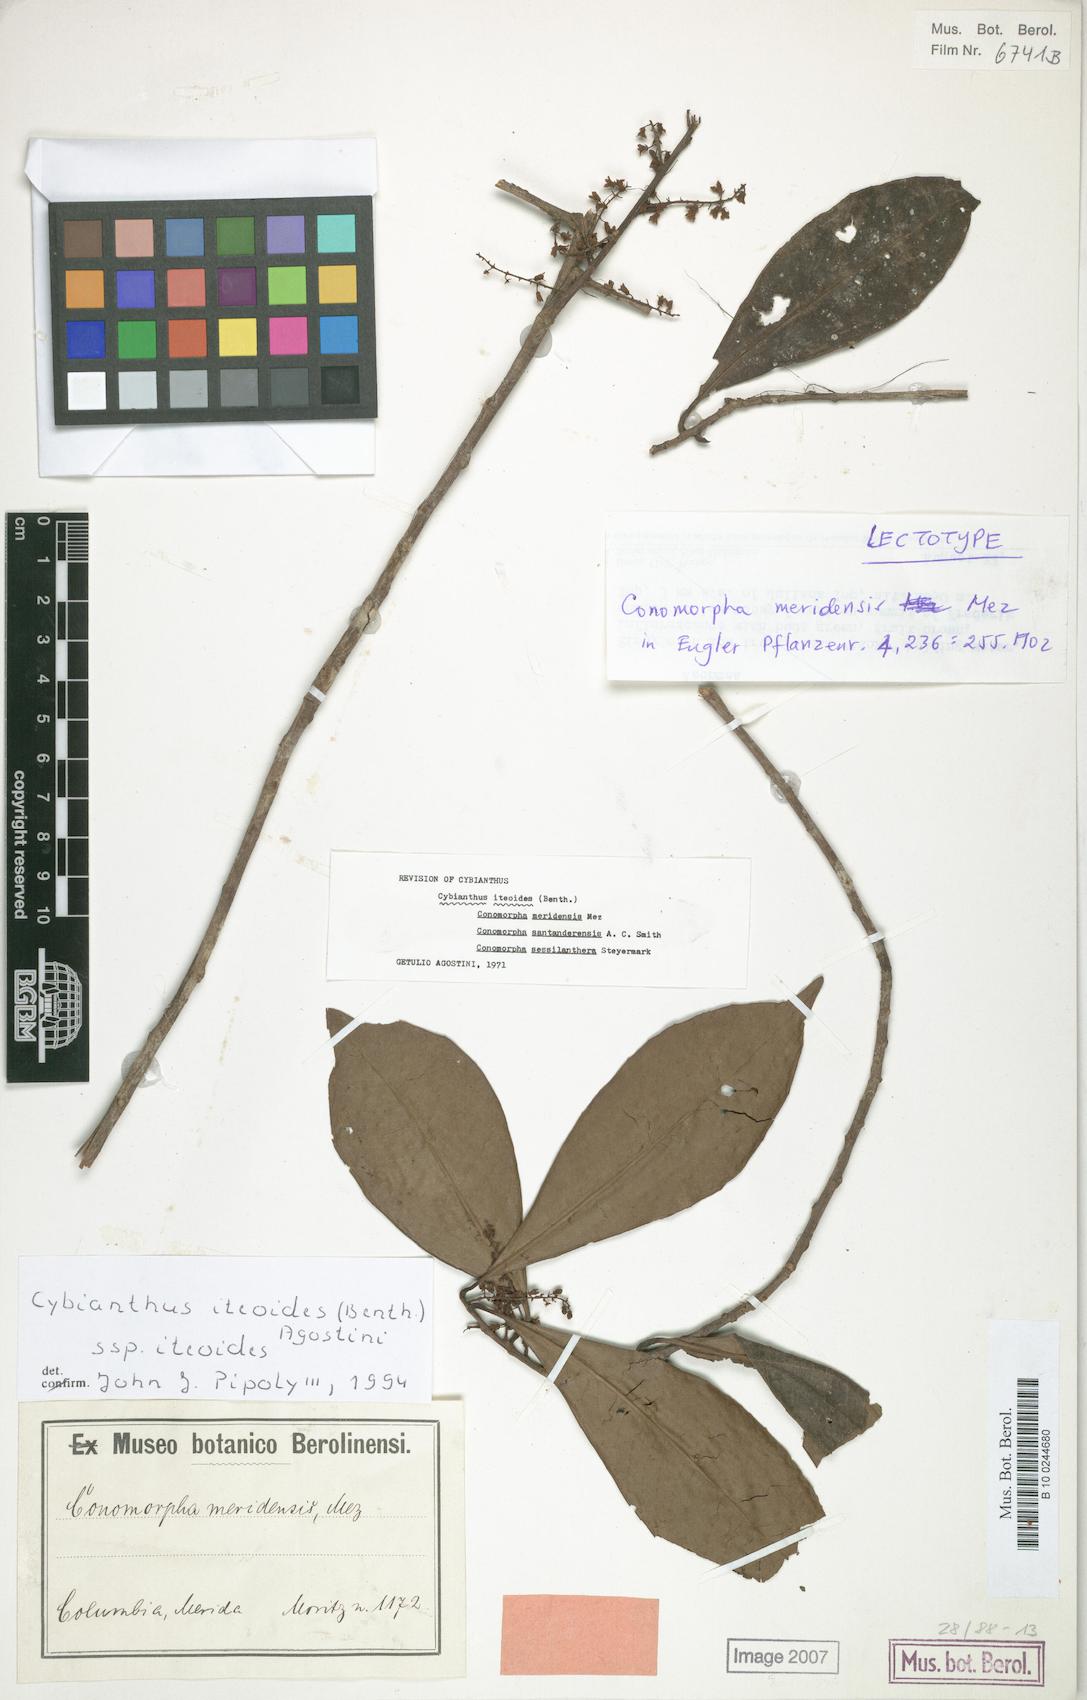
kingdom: Plantae
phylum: Tracheophyta
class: Magnoliopsida
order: Ericales
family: Primulaceae
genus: Cybianthus
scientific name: Cybianthus iteoides
